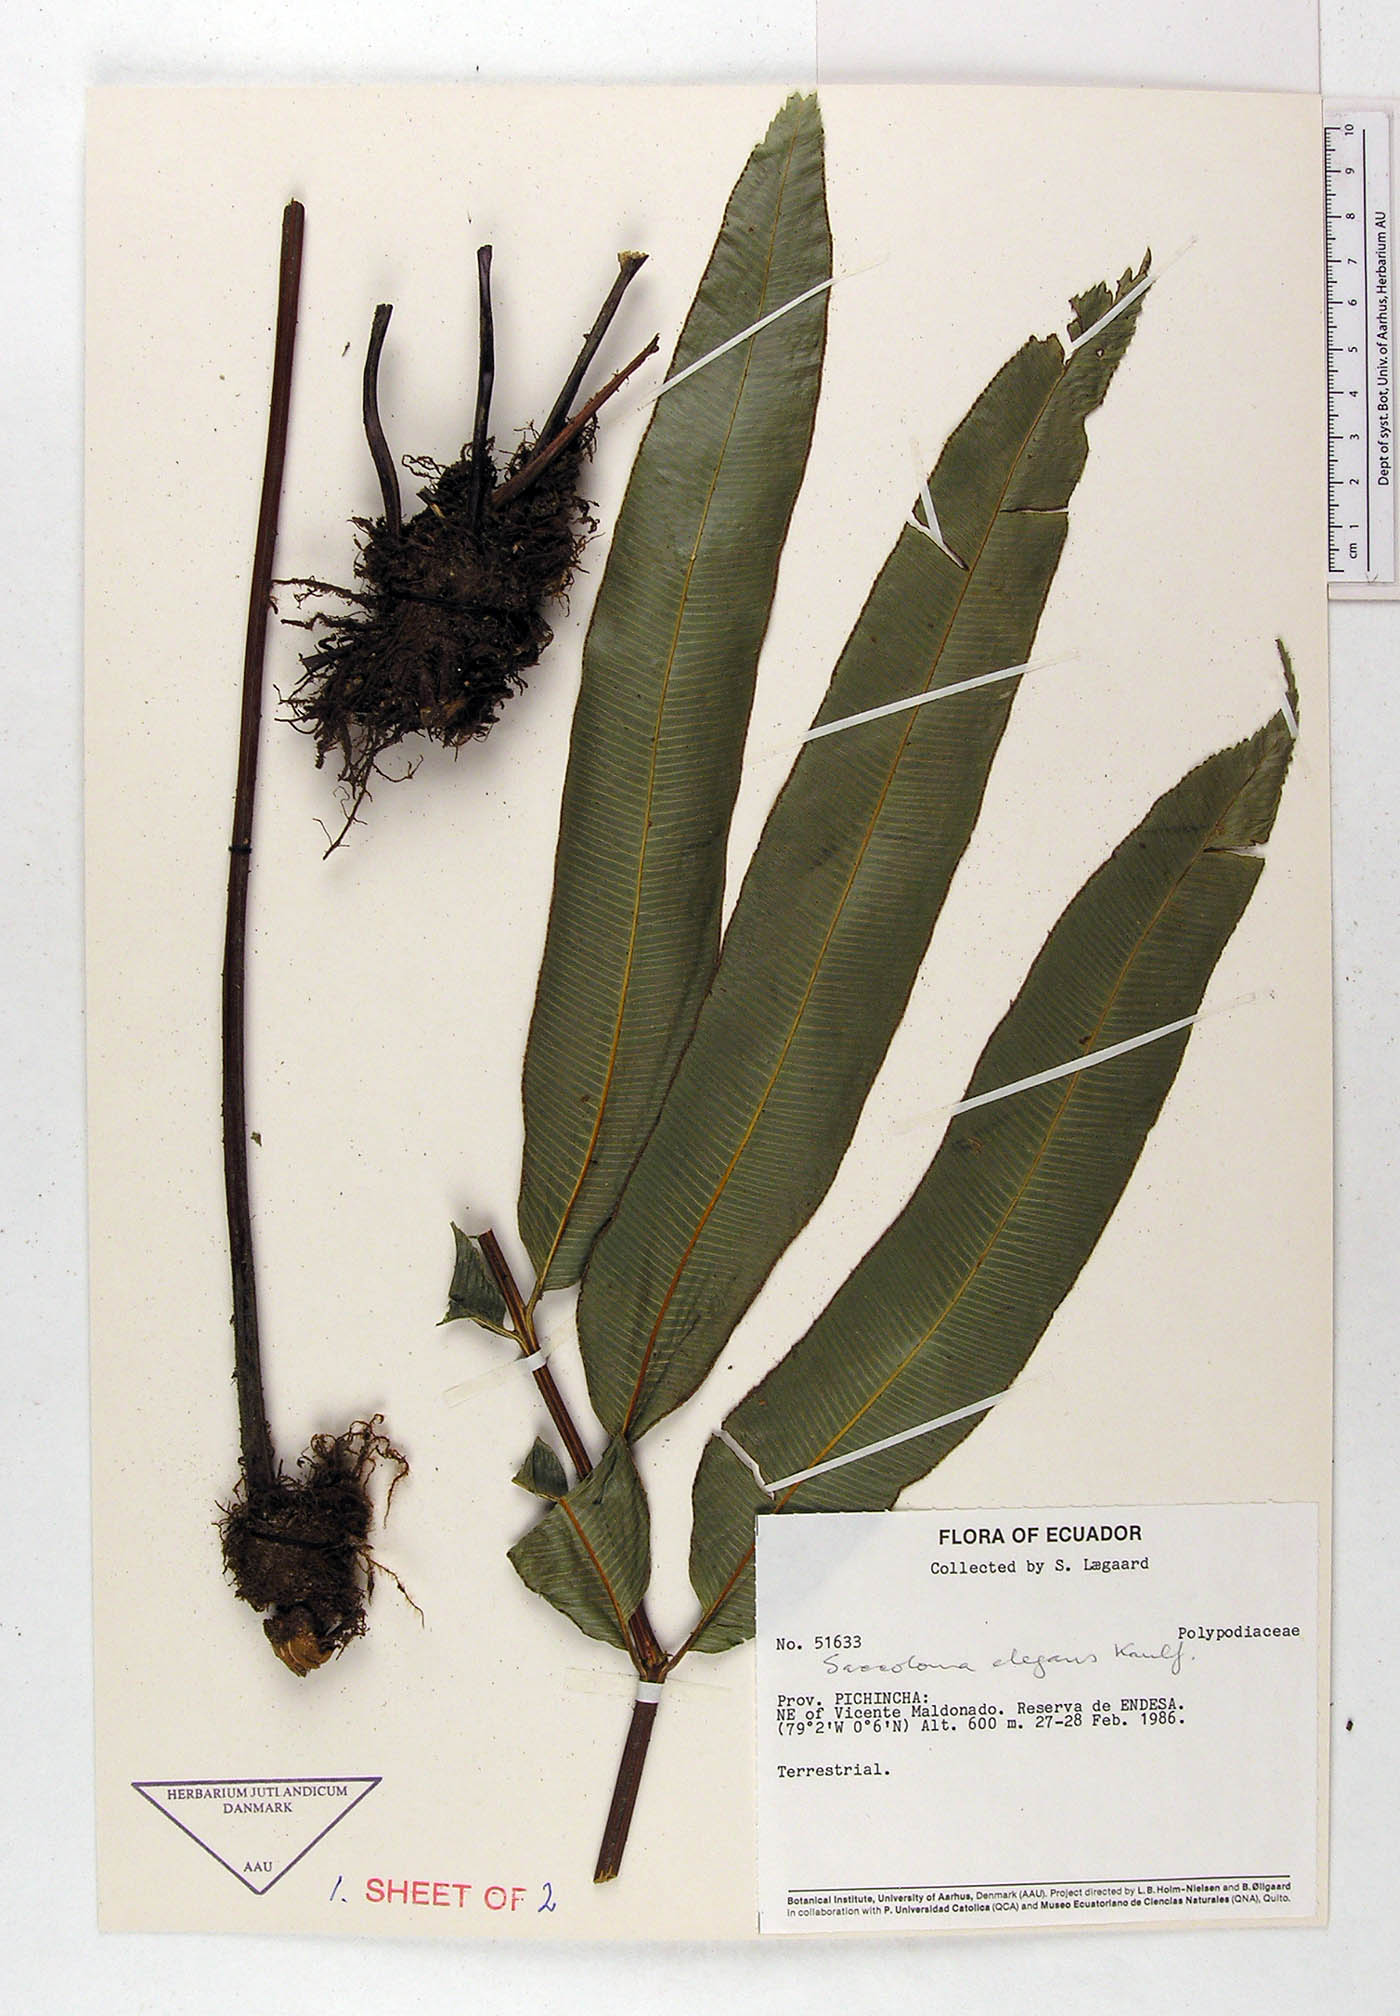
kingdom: Plantae
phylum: Tracheophyta
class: Polypodiopsida
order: Polypodiales
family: Polypodiaceae
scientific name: Polypodiaceae
